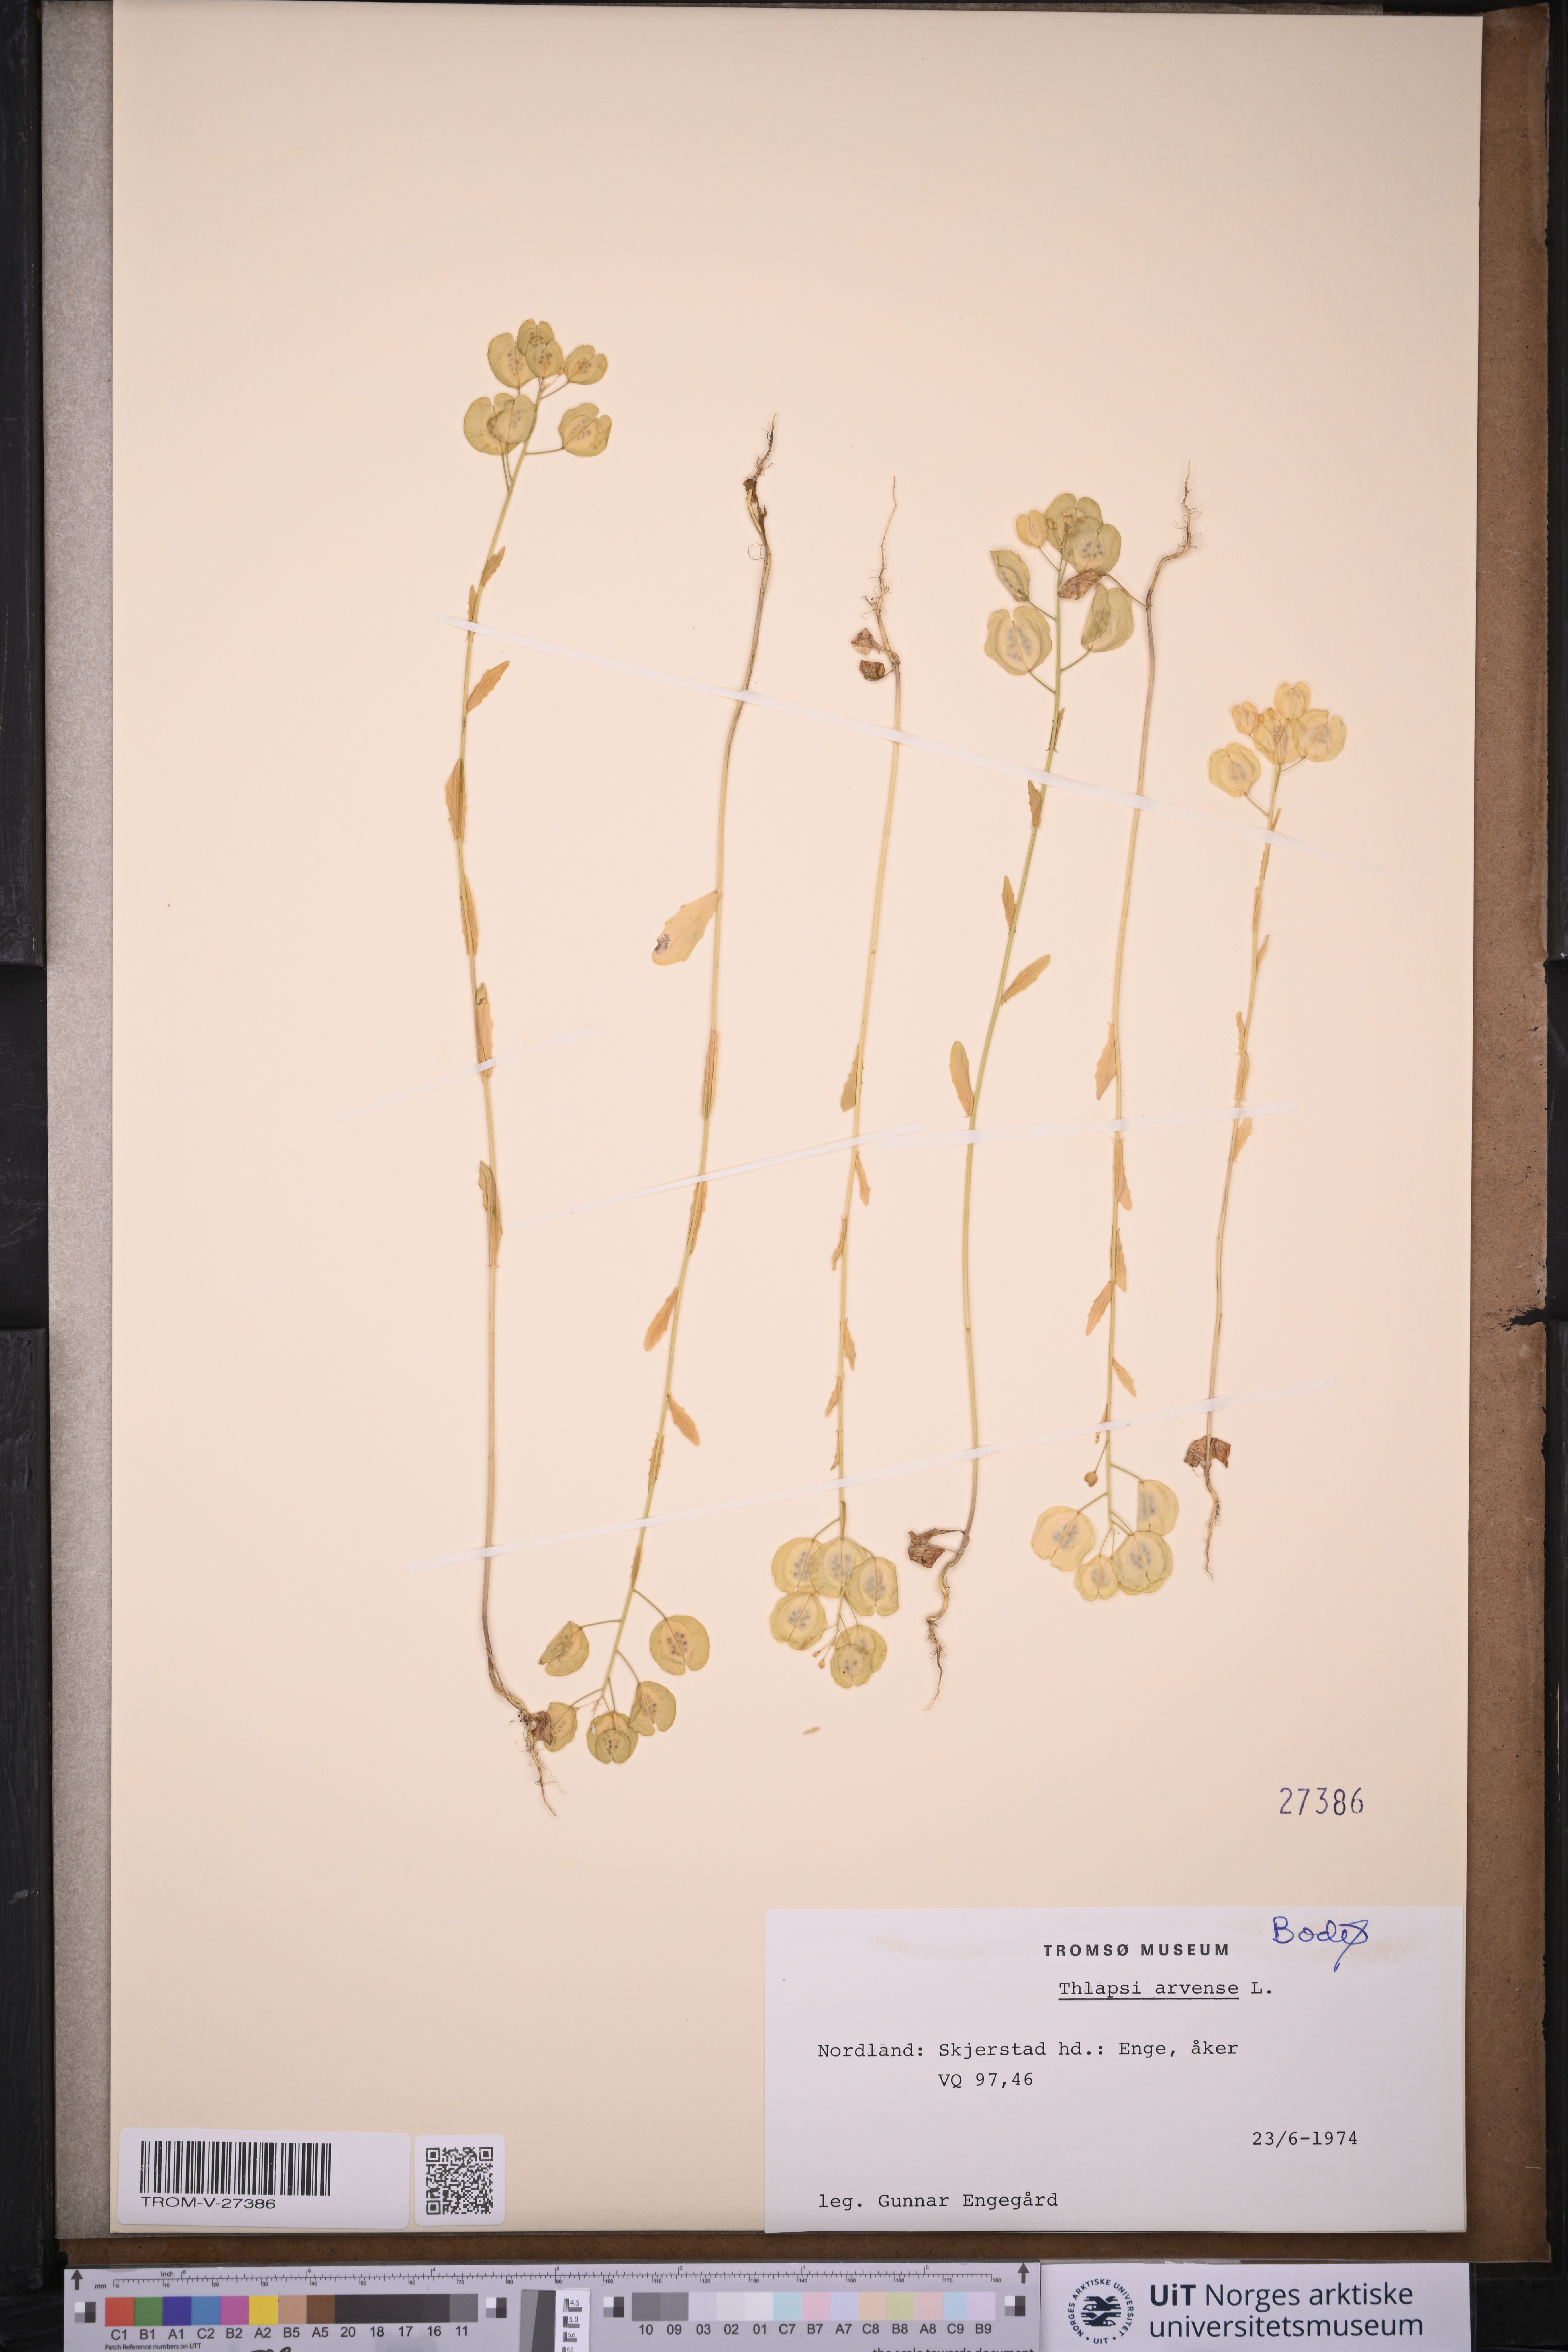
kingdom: Plantae
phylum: Tracheophyta
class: Magnoliopsida
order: Brassicales
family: Brassicaceae
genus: Thlaspi
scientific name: Thlaspi arvense
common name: Field pennycress
